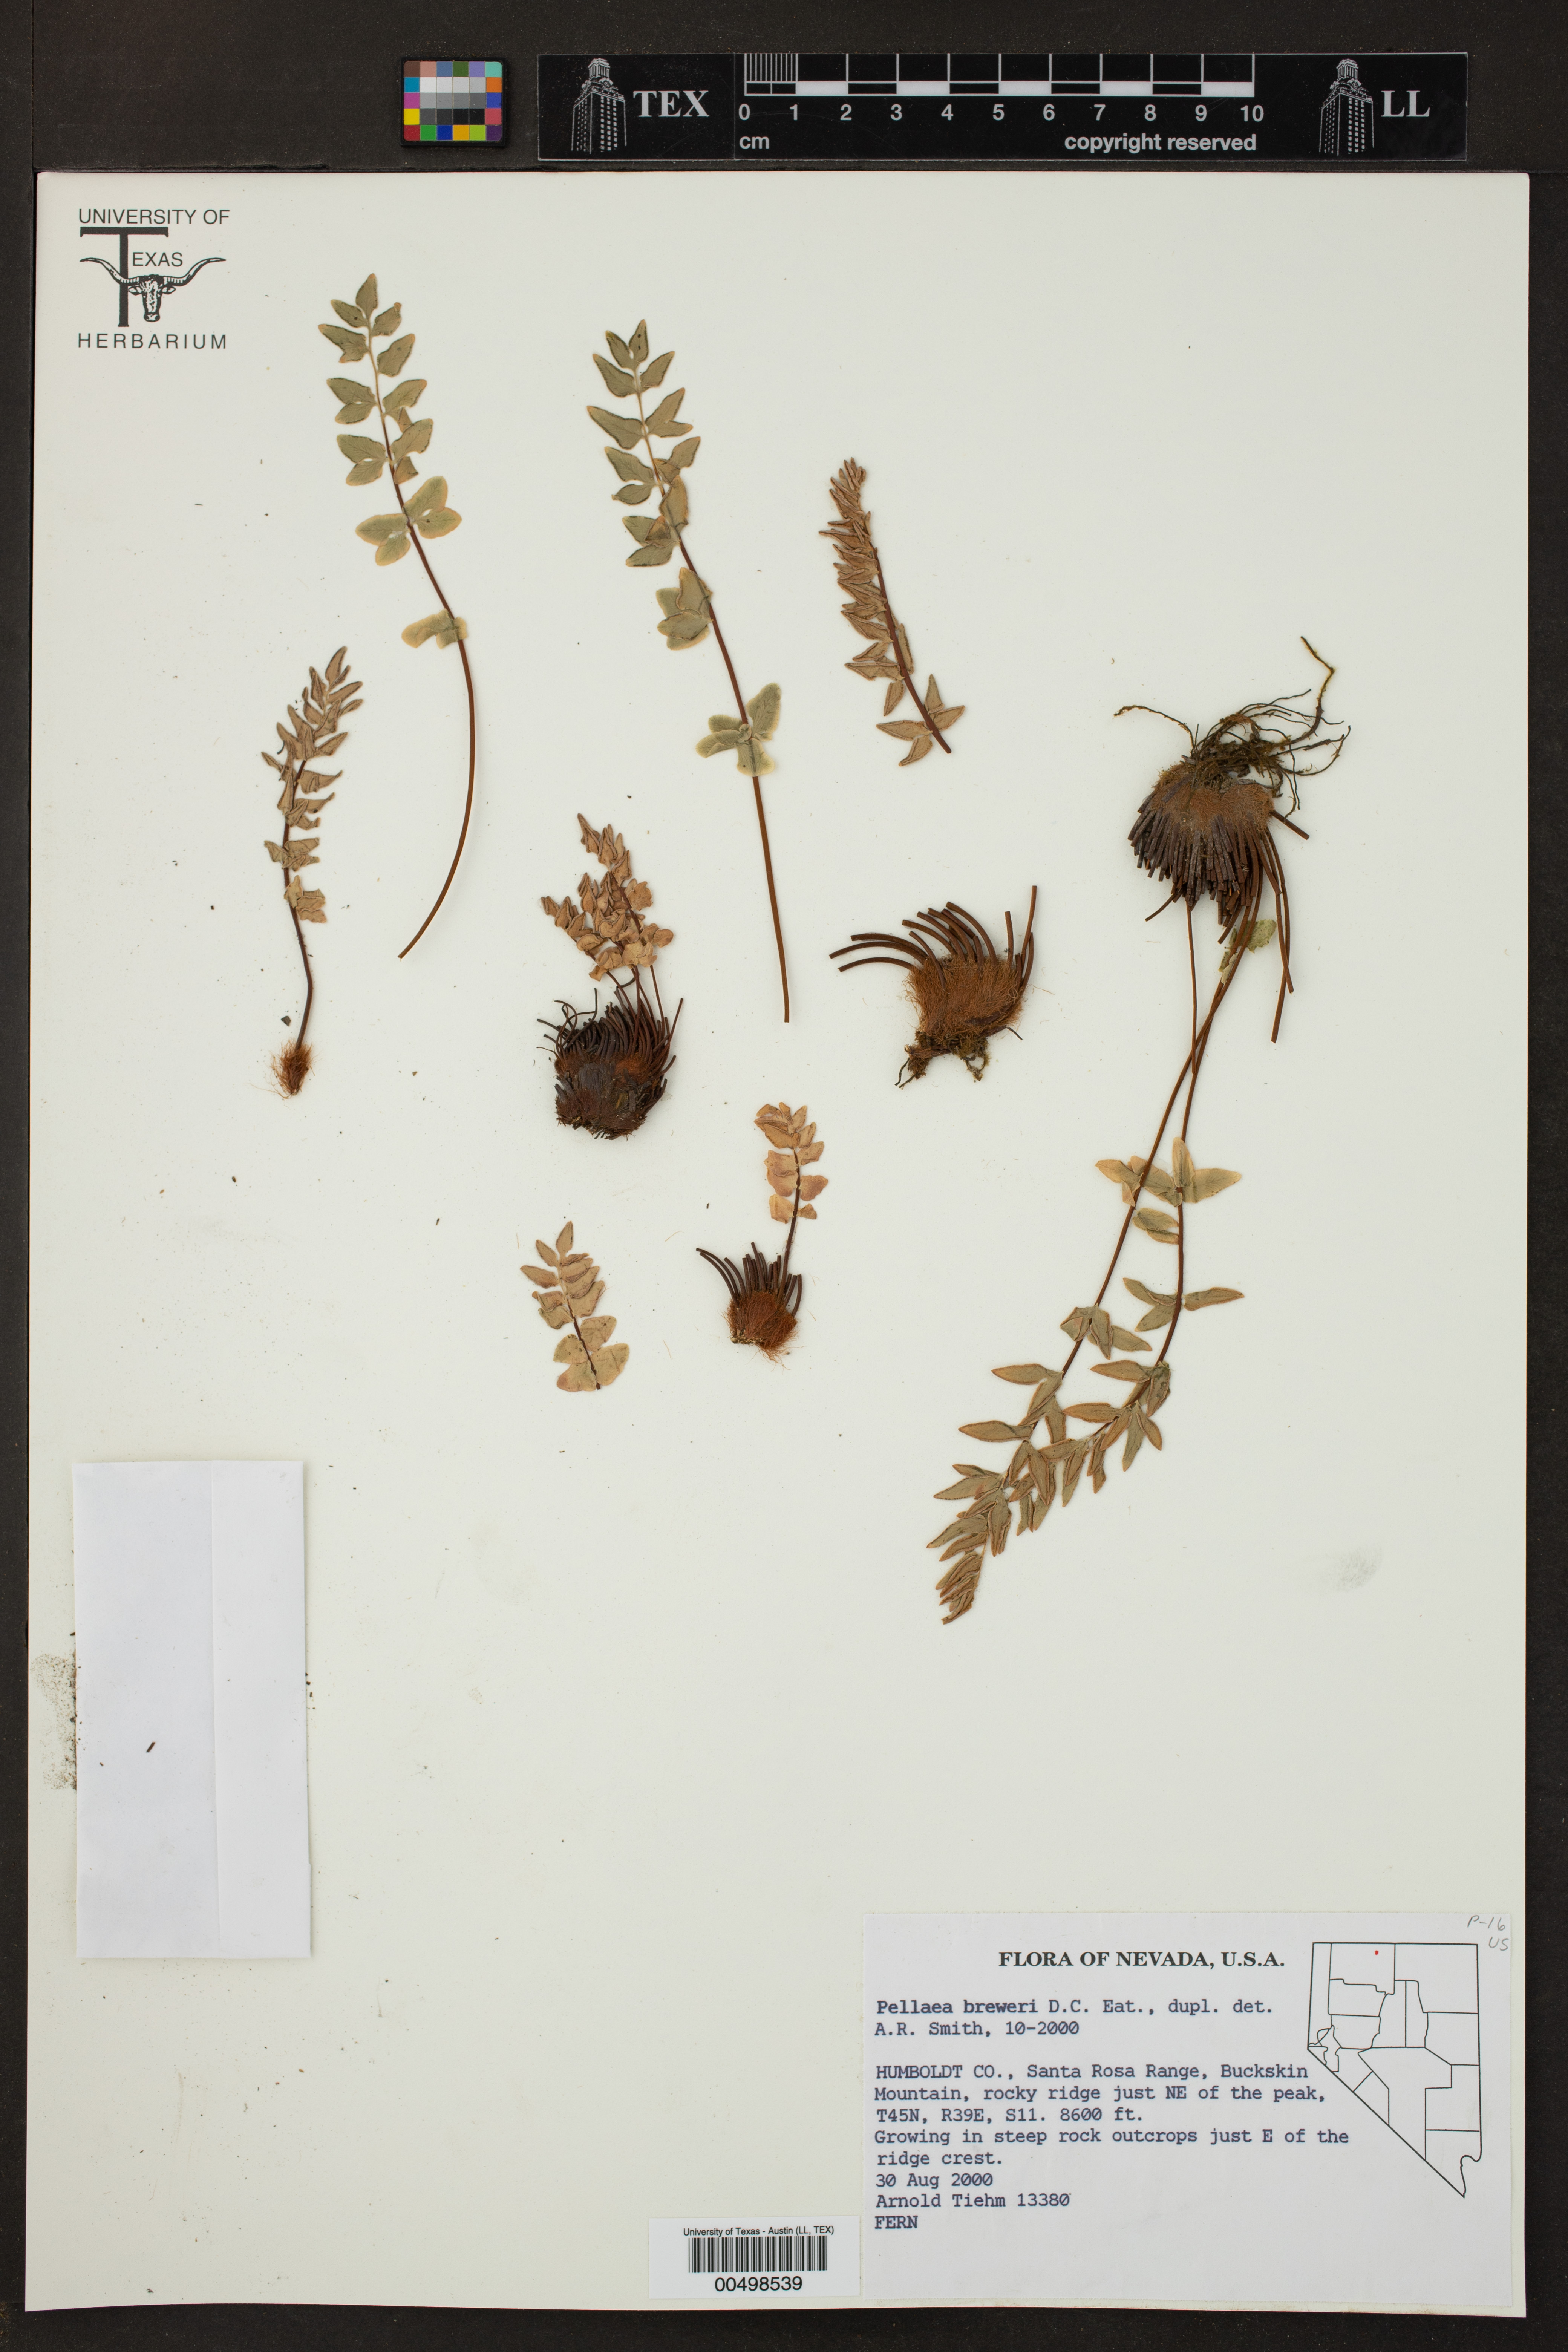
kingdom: Plantae
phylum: Tracheophyta
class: Polypodiopsida
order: Polypodiales
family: Pteridaceae
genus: Pellaea
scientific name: Pellaea breweri
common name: Brewer's cliffbrake
